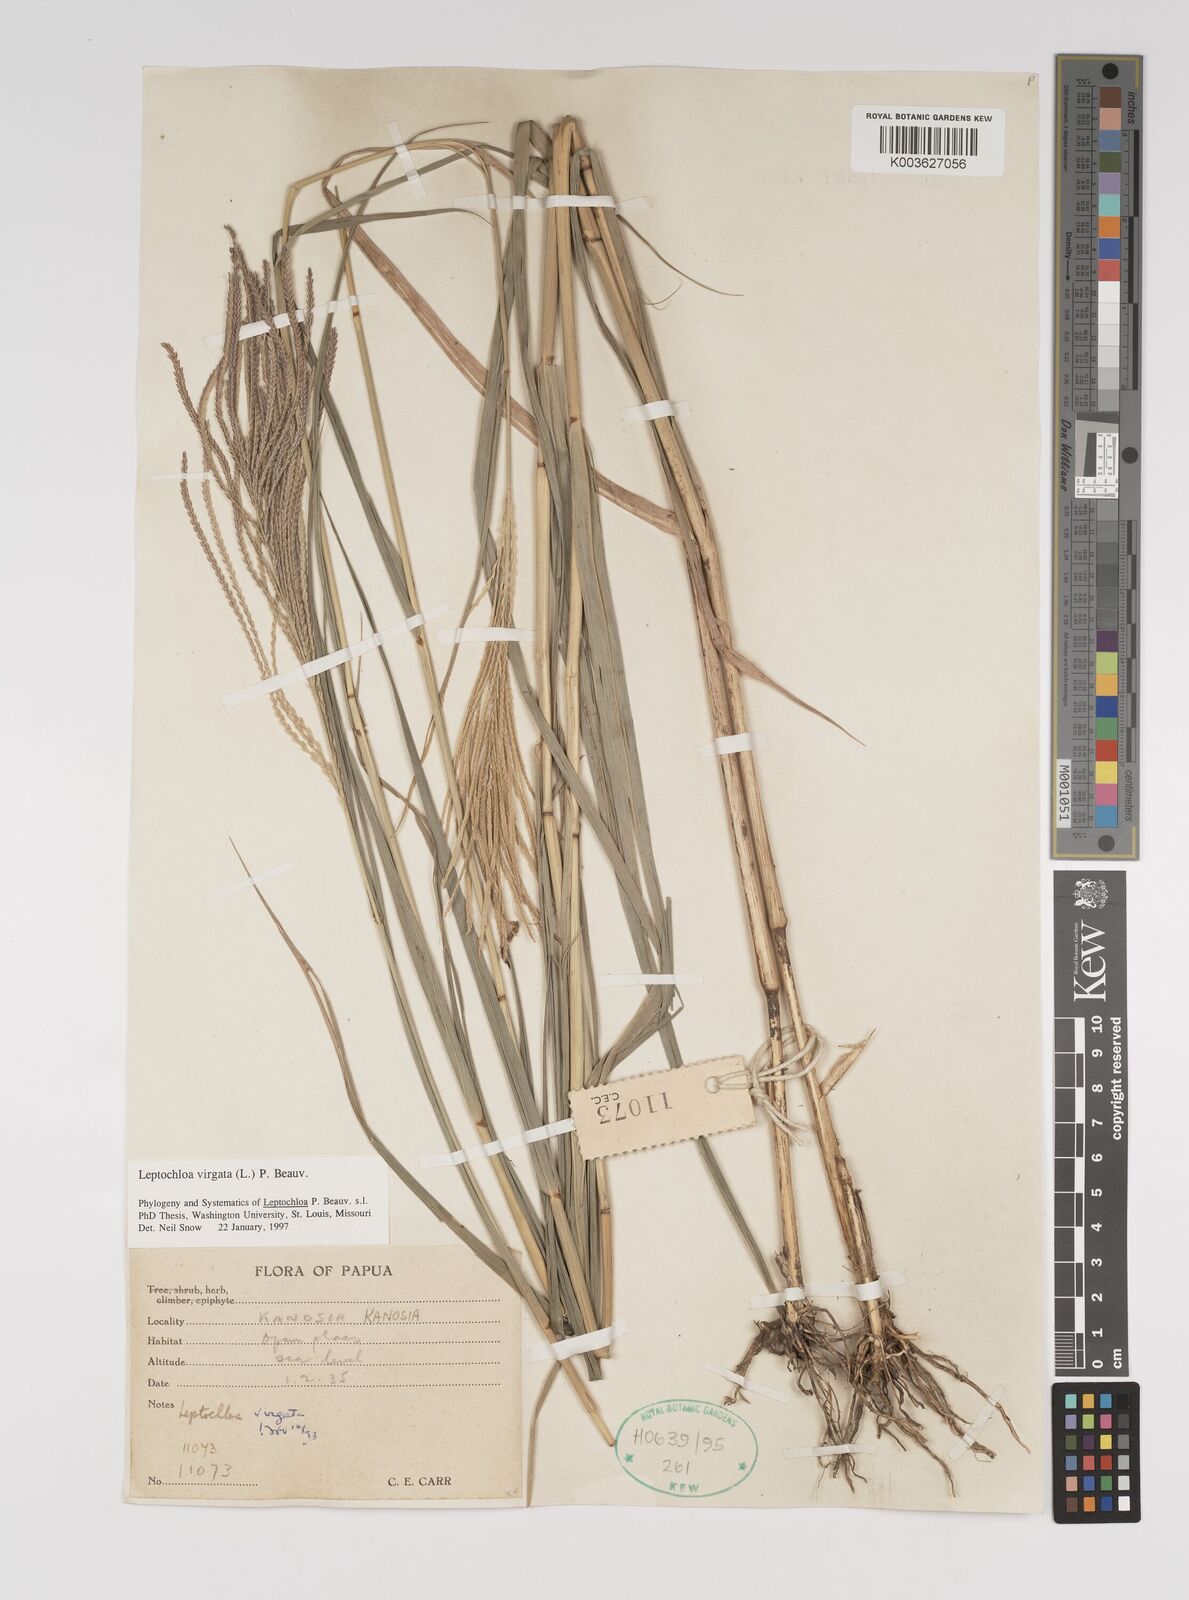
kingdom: Plantae
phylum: Tracheophyta
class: Liliopsida
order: Poales
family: Poaceae
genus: Leptochloa
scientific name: Leptochloa
